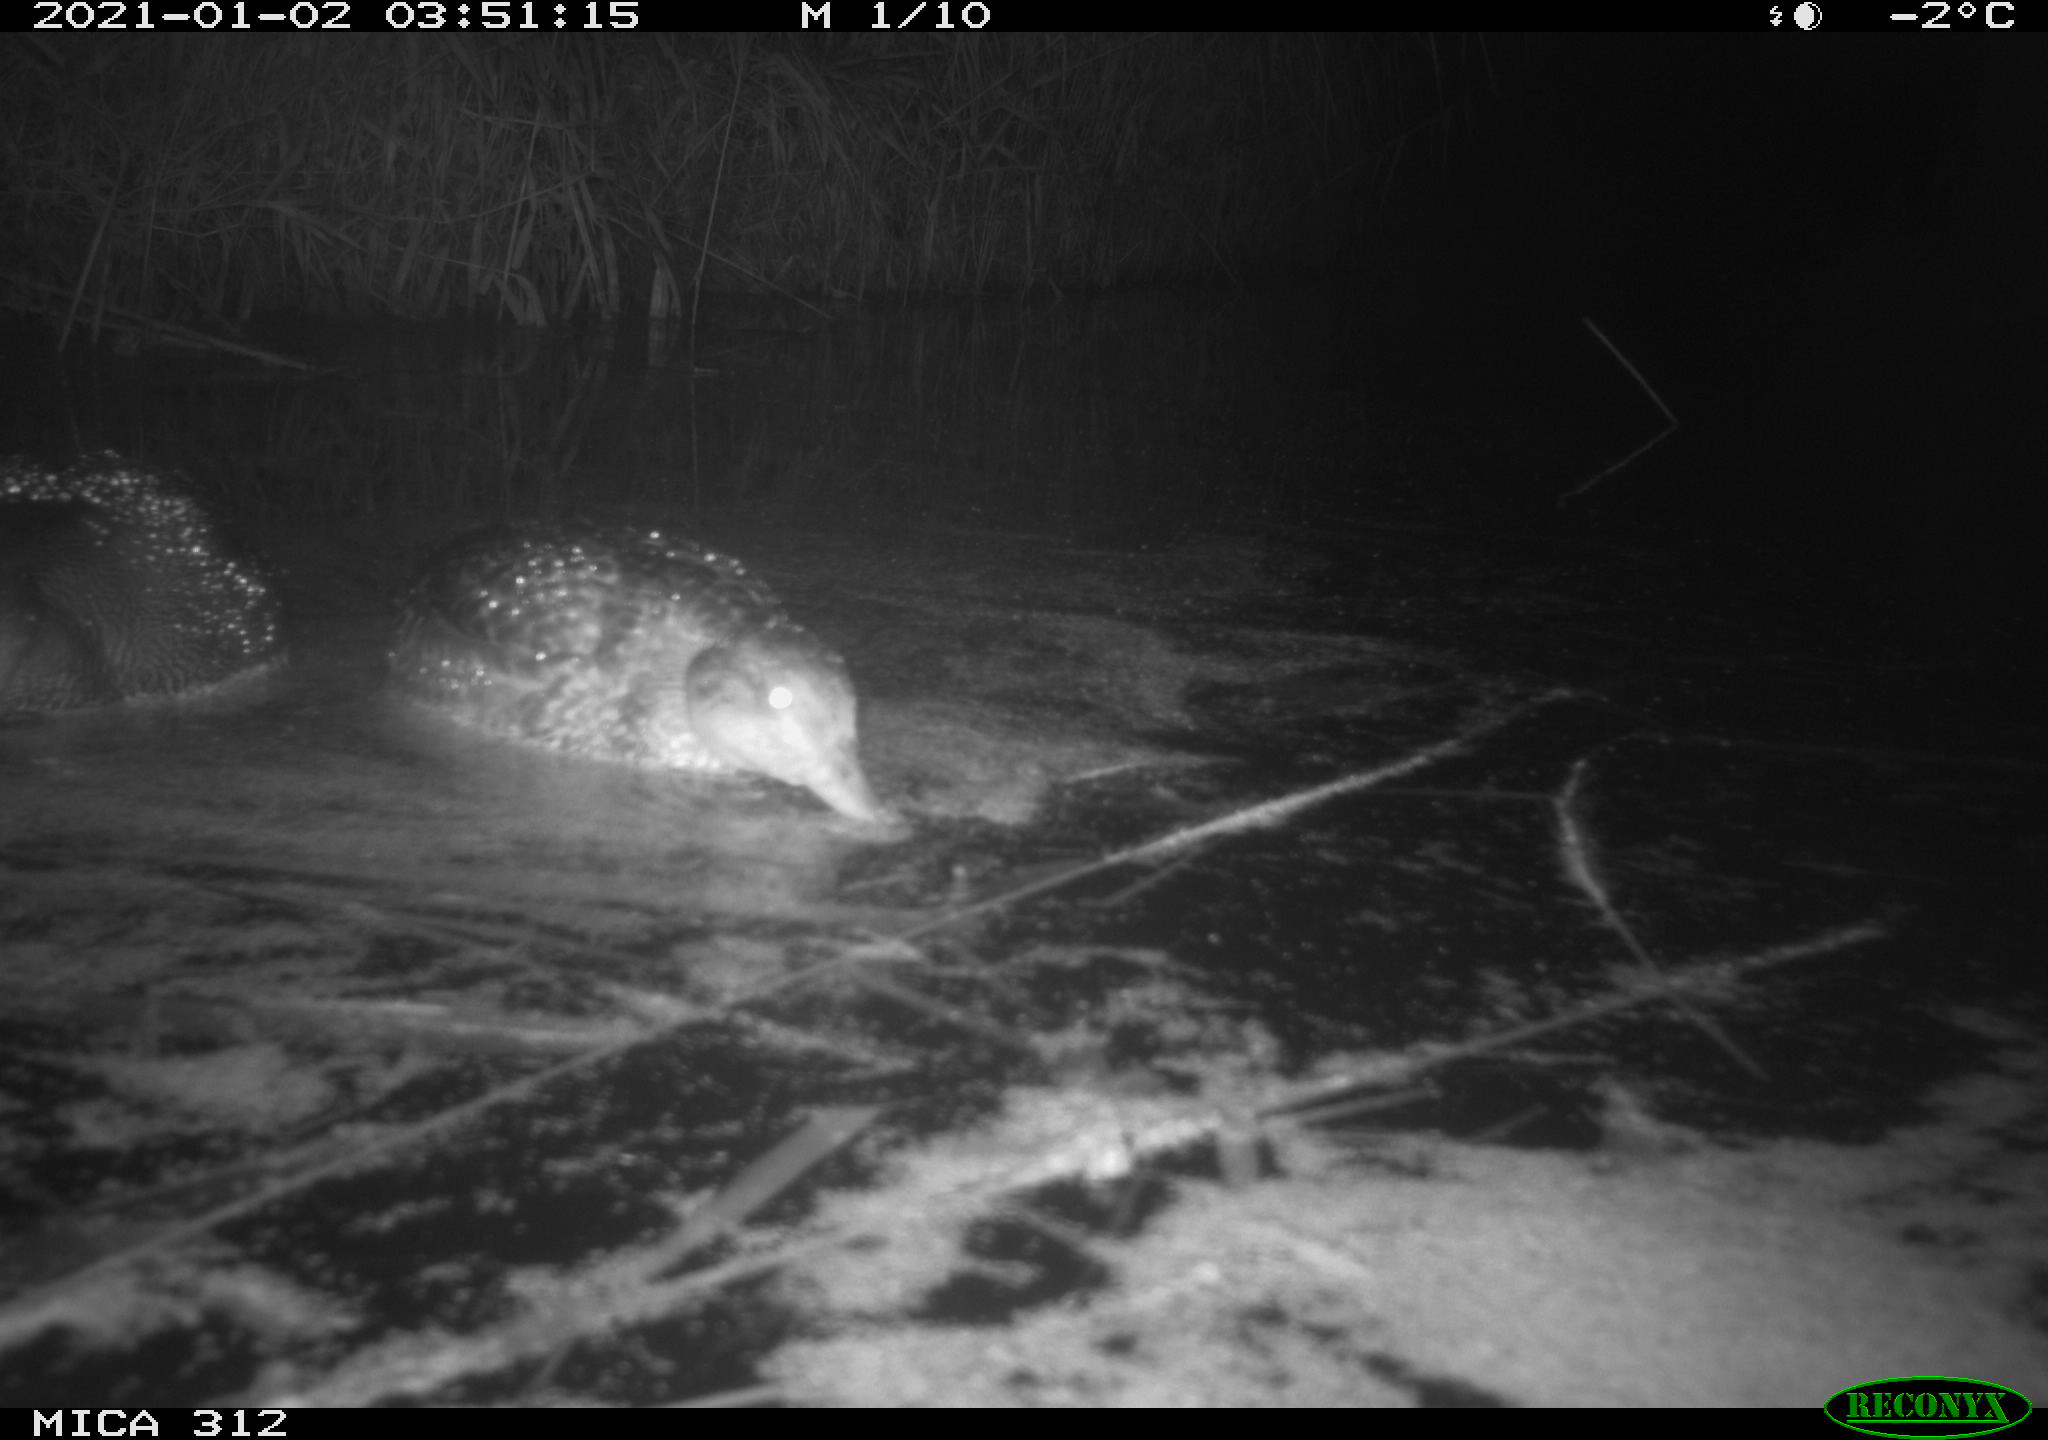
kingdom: Animalia
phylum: Chordata
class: Aves
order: Anseriformes
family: Anatidae
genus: Mareca
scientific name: Mareca strepera
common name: Gadwall
